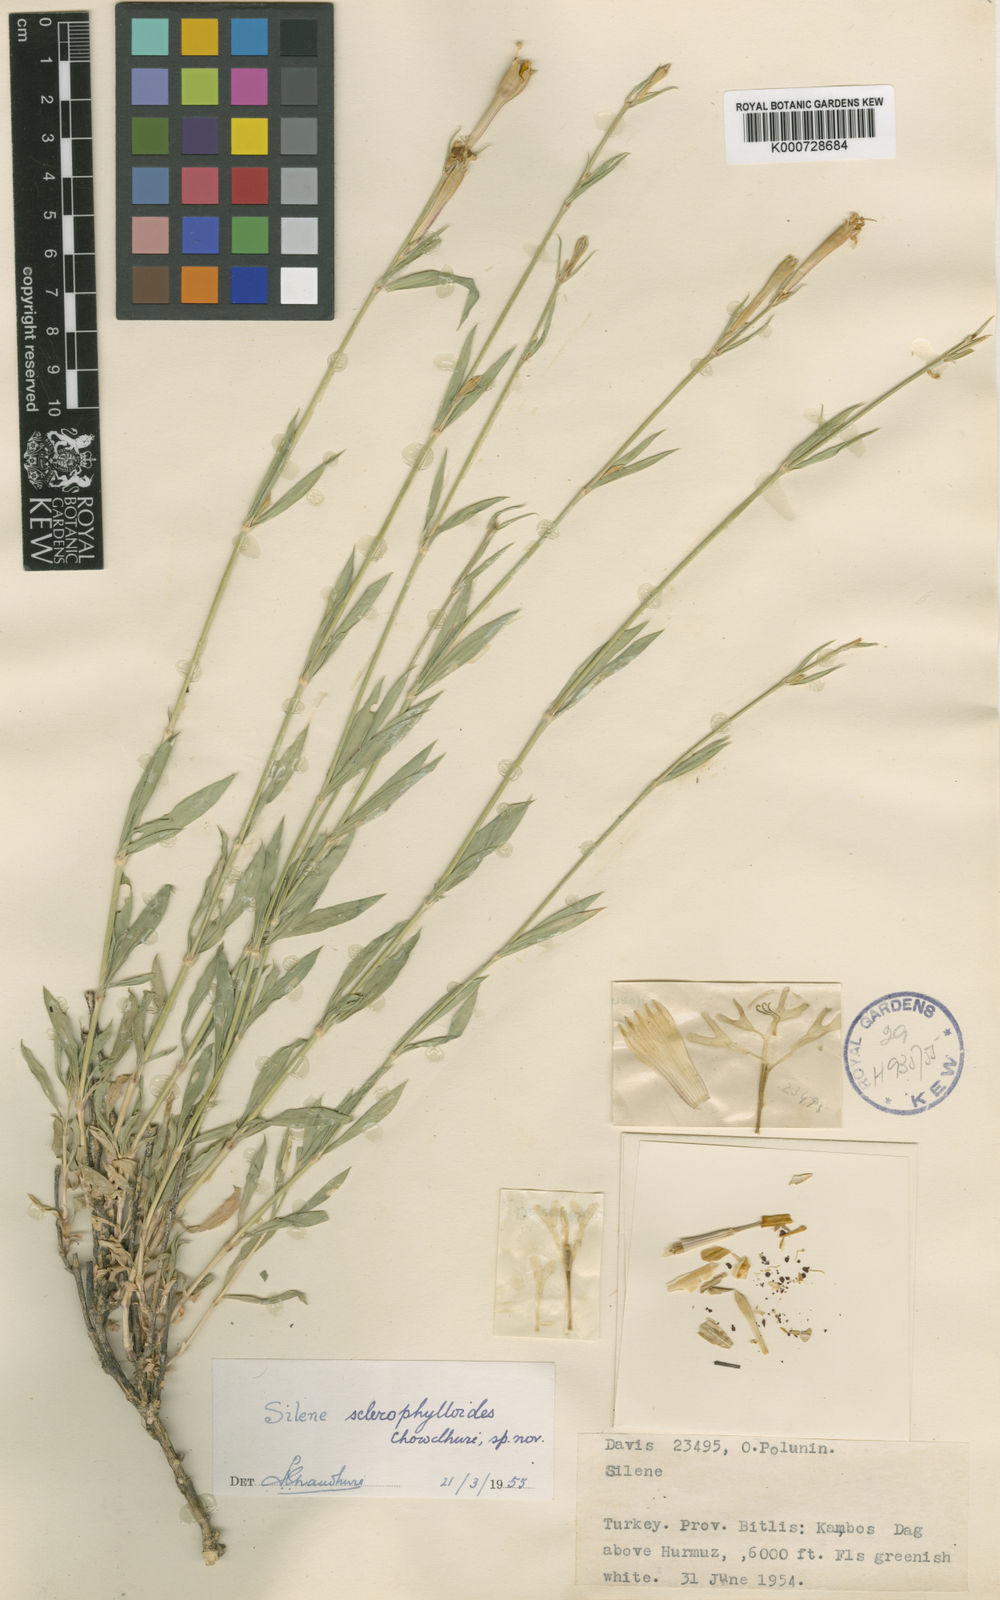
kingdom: Plantae
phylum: Tracheophyta
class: Magnoliopsida
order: Caryophyllales
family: Caryophyllaceae
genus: Silene
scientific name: Silene sclerophylla
